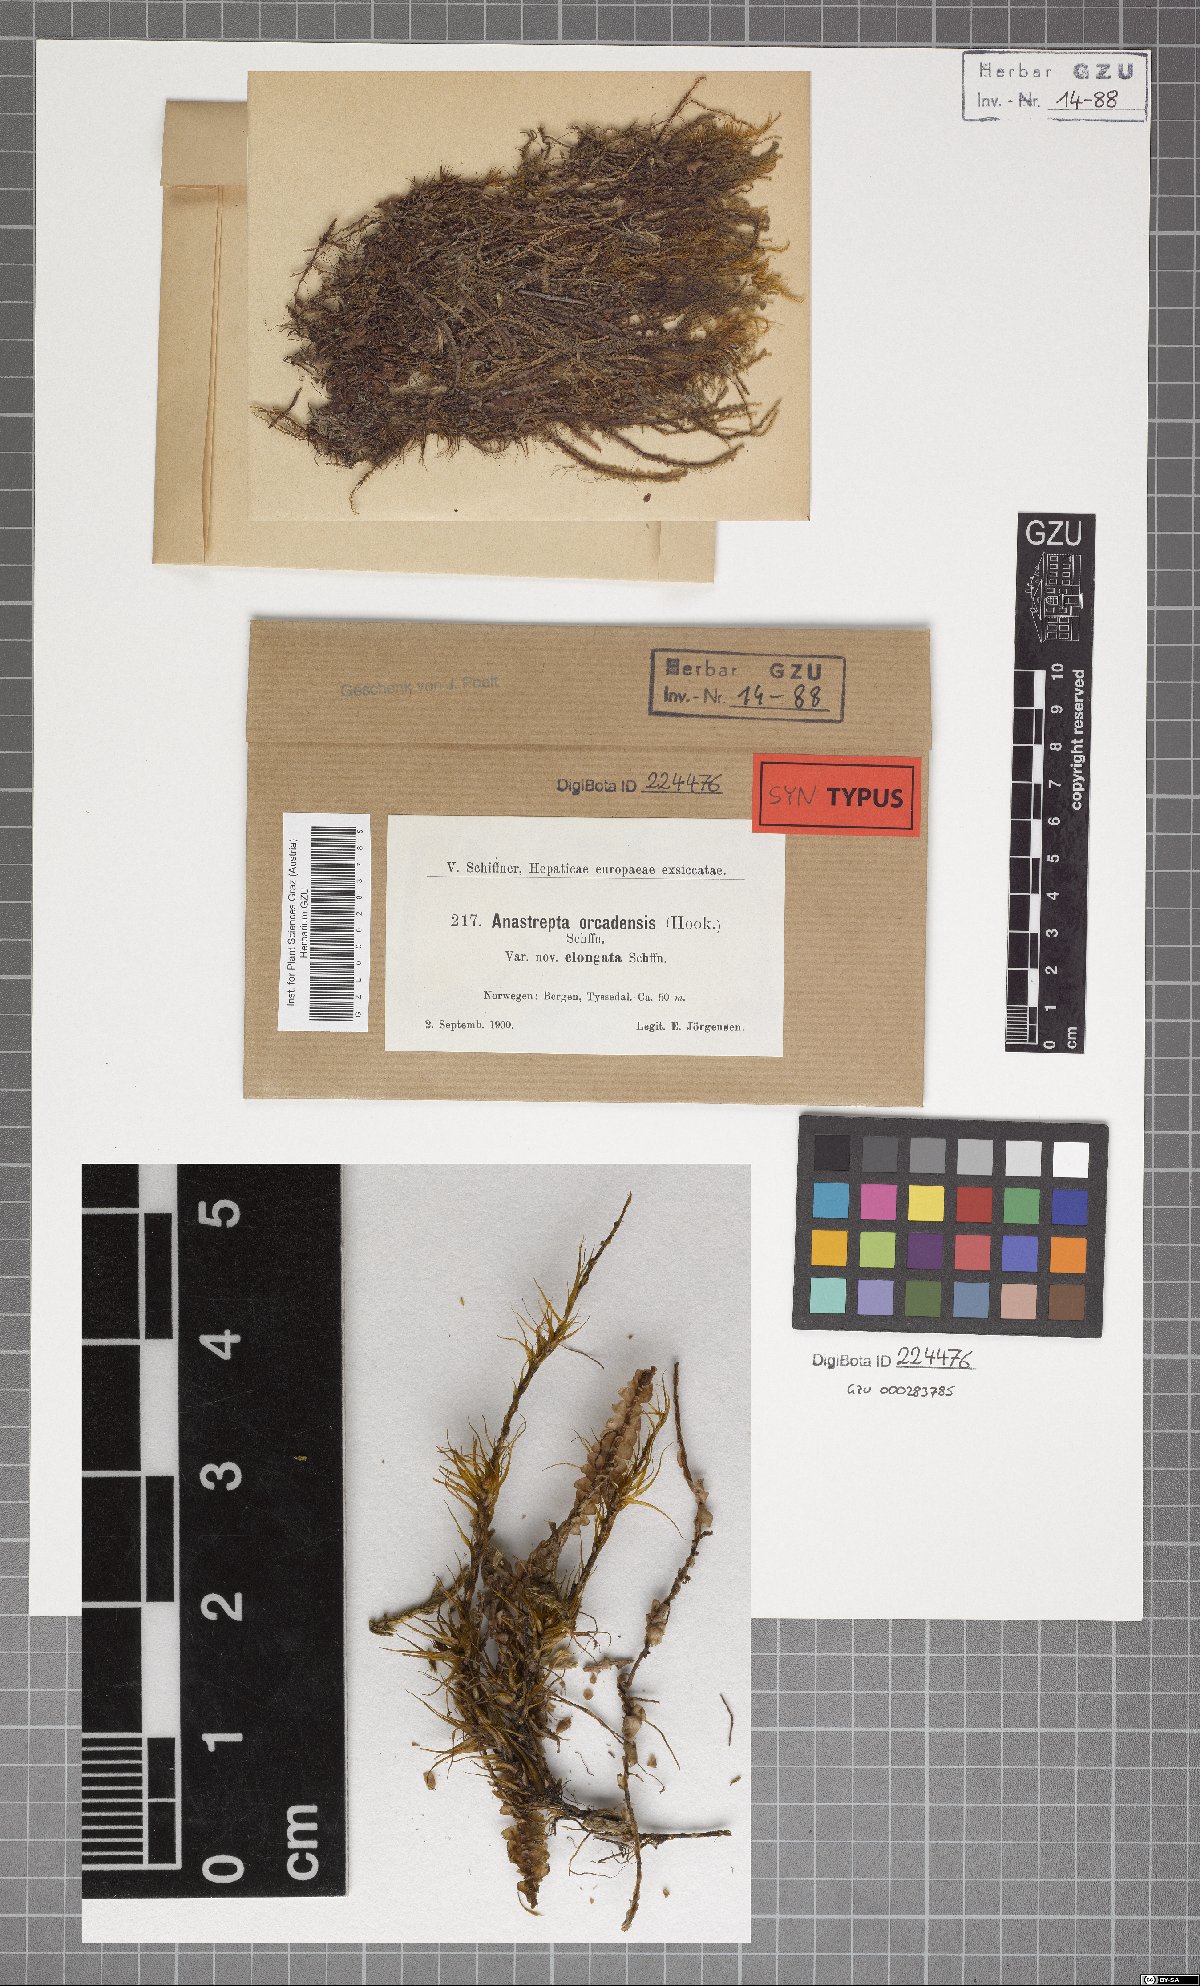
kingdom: Plantae
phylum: Marchantiophyta
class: Jungermanniopsida
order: Jungermanniales
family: Anastrophyllaceae
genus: Anastrepta
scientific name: Anastrepta orcadensis
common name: Orkney notchwort
